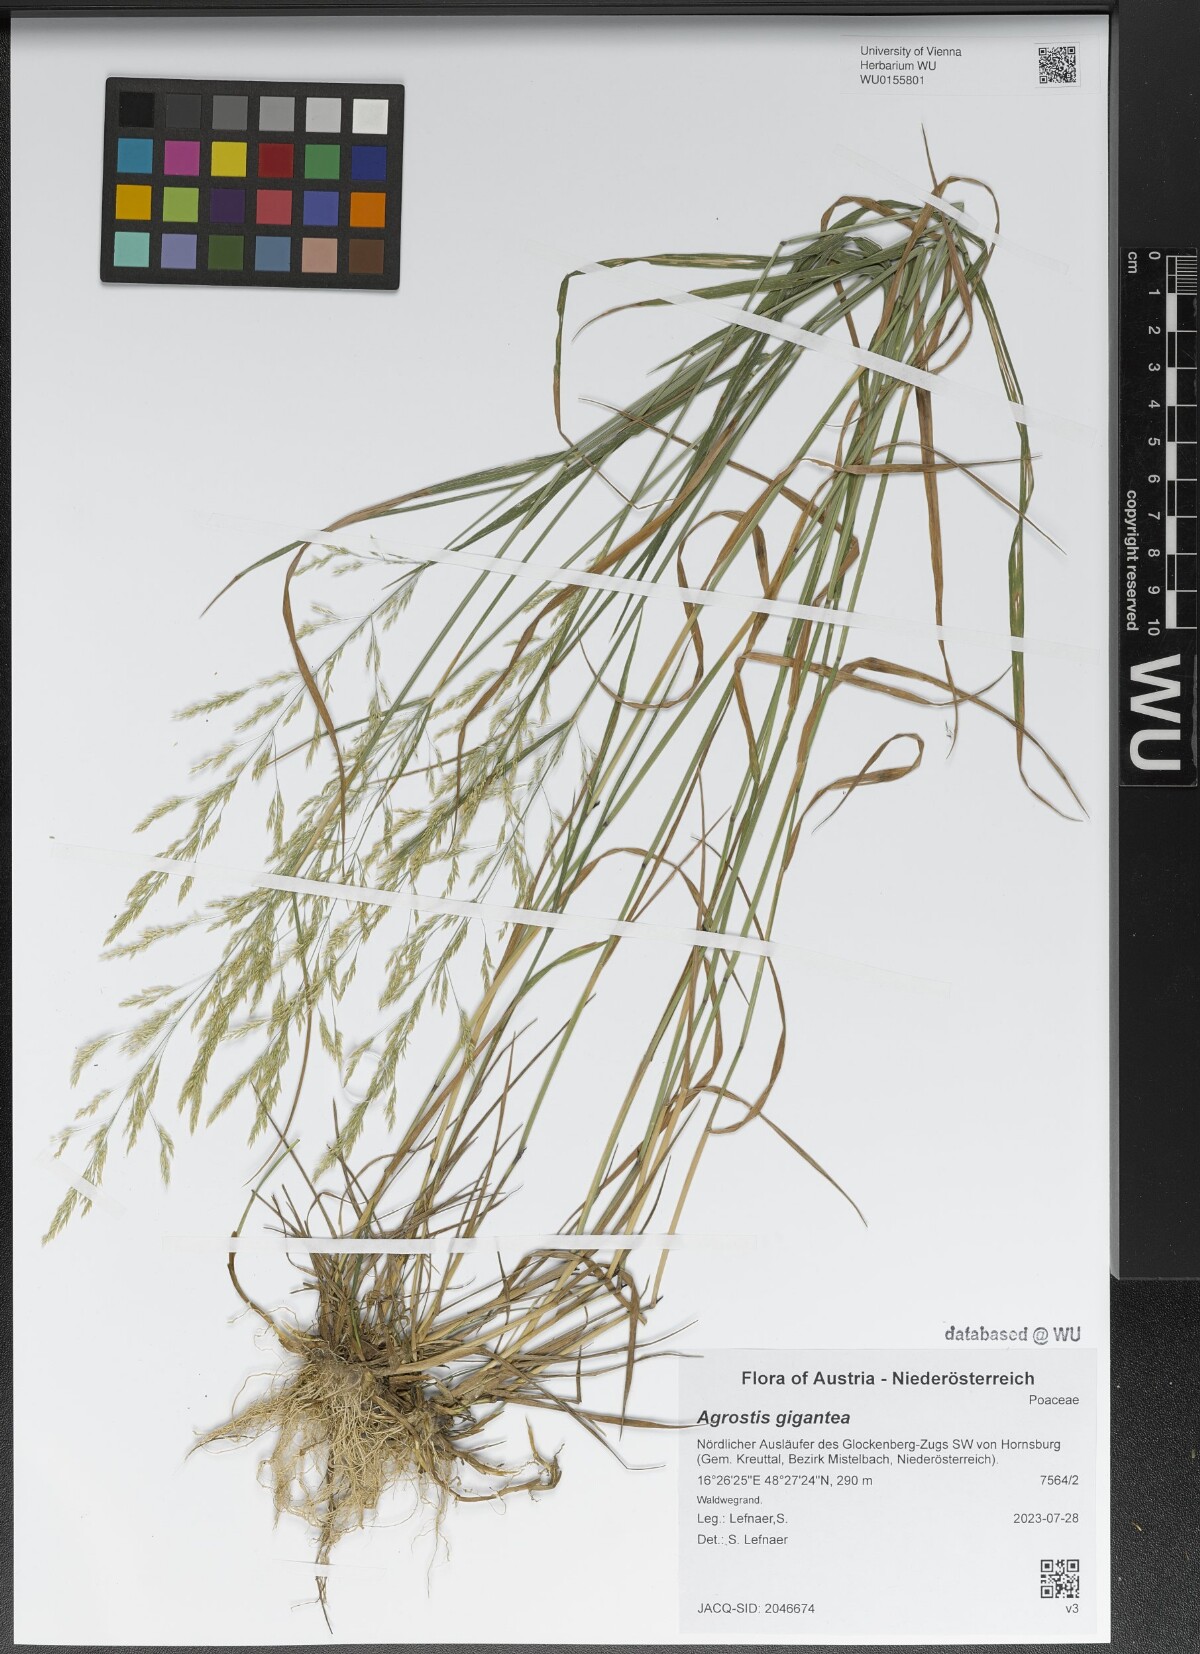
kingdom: Plantae
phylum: Tracheophyta
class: Liliopsida
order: Poales
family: Poaceae
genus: Agrostis
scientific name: Agrostis gigantea
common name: Black bent
